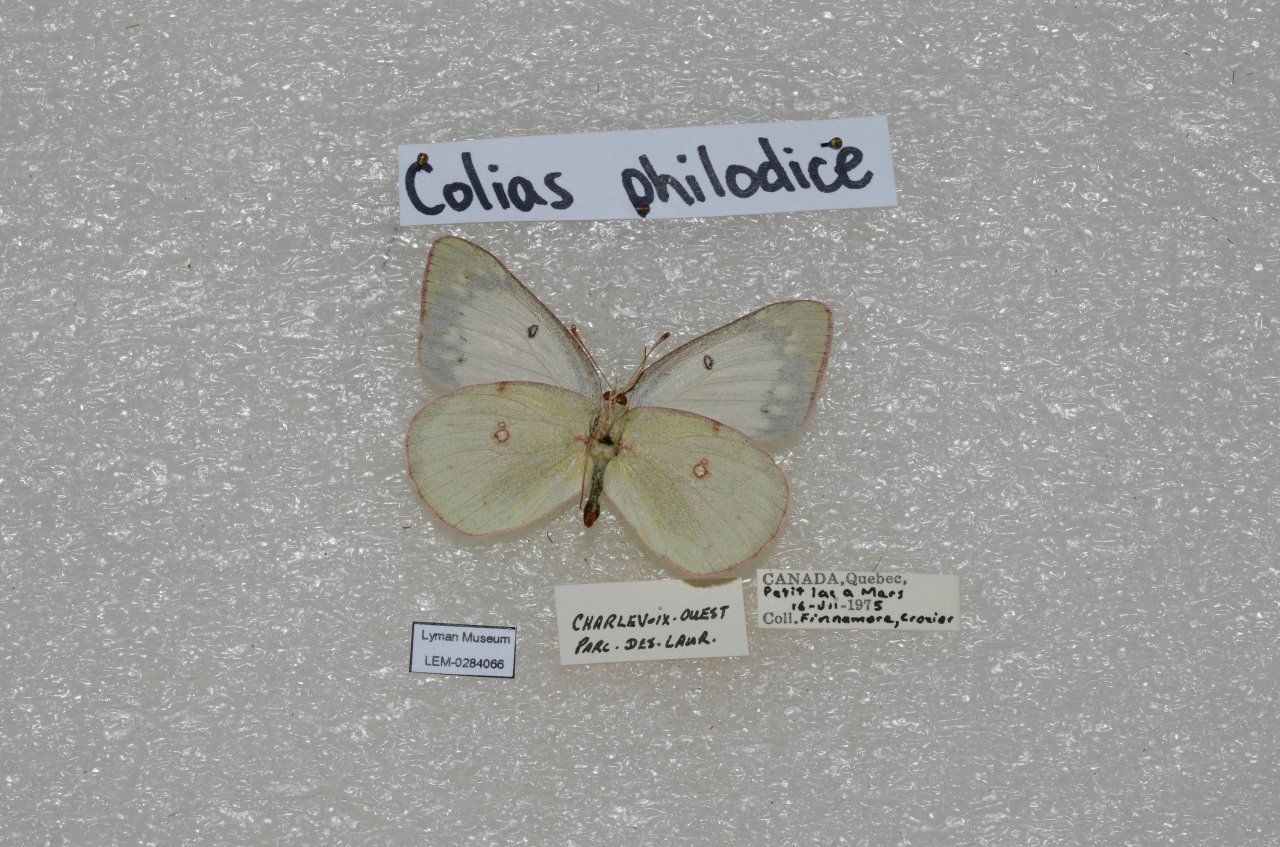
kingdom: Animalia
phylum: Arthropoda
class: Insecta
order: Lepidoptera
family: Pieridae
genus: Colias
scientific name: Colias philodice
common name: Clouded Sulphur
